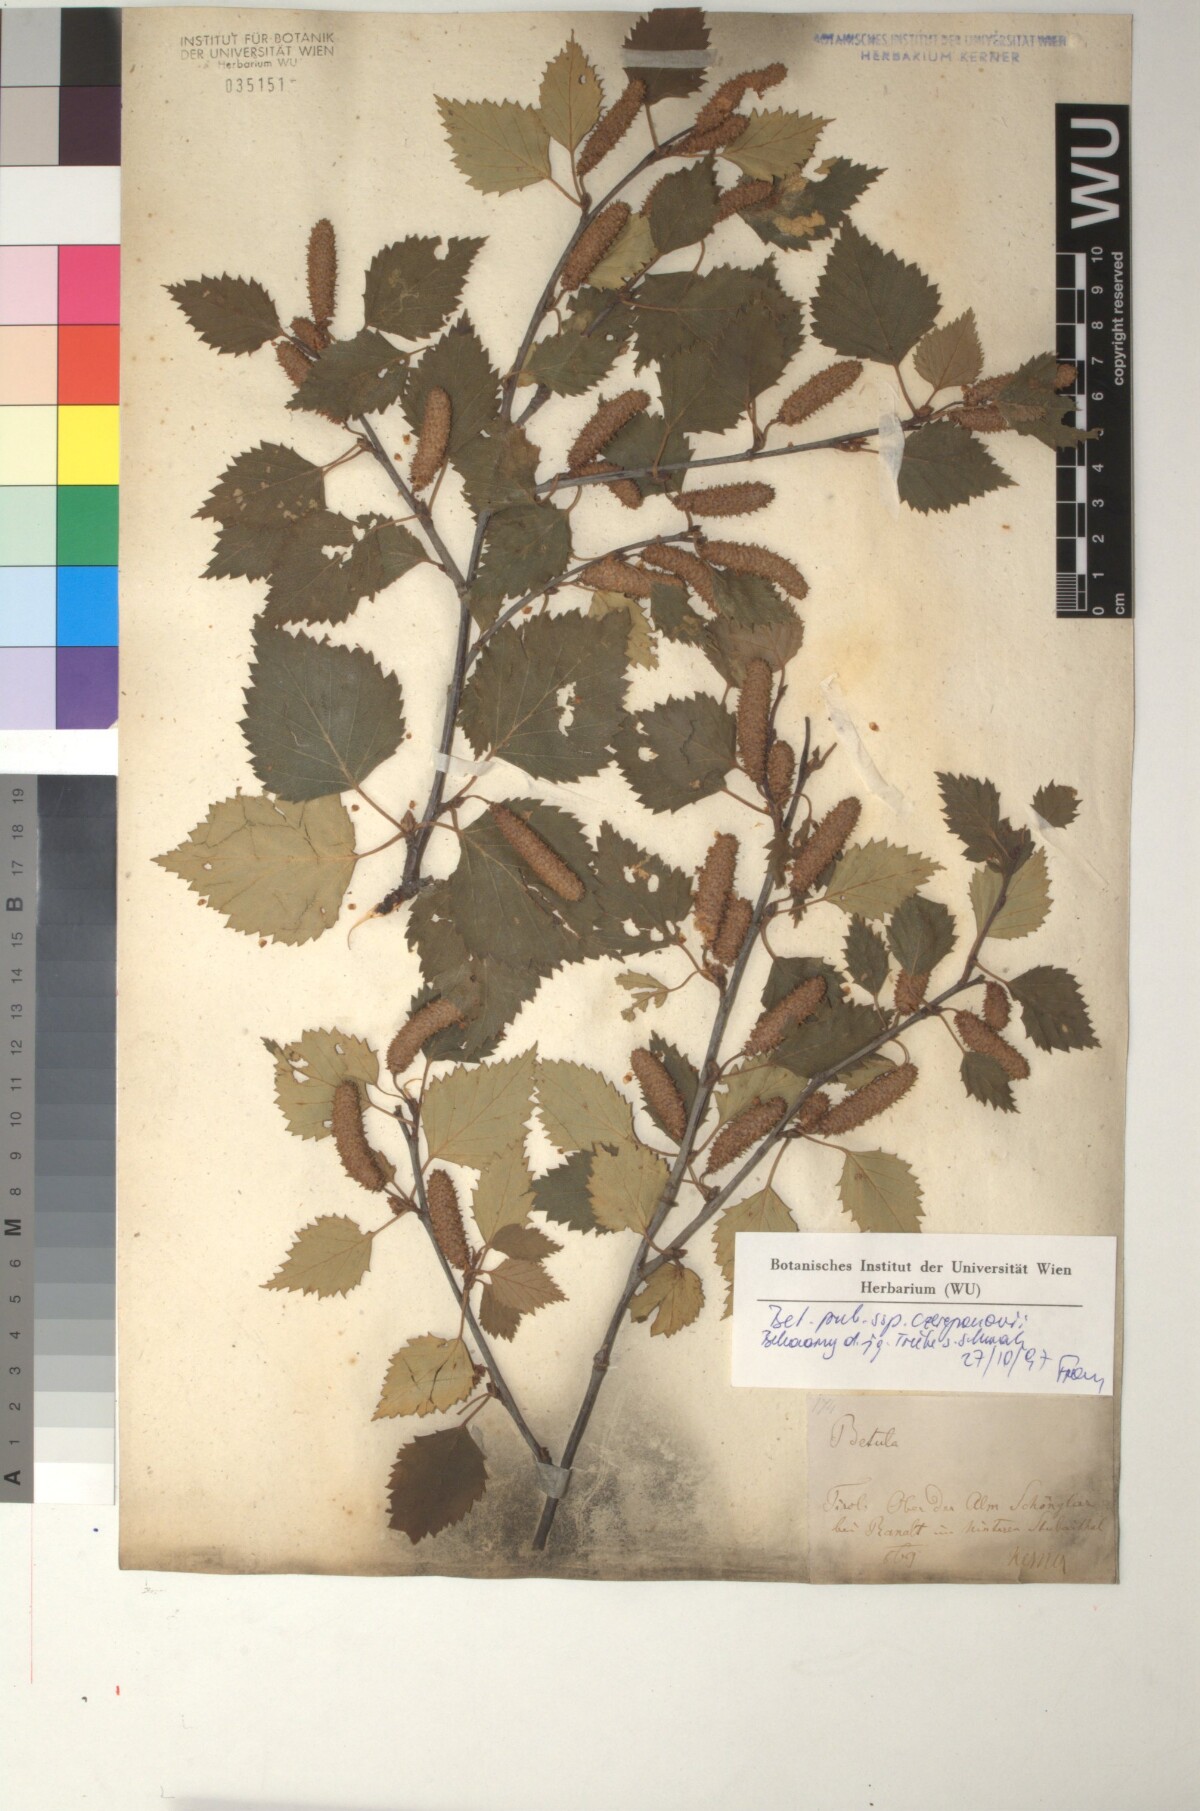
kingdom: Plantae
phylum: Tracheophyta
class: Magnoliopsida
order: Fagales
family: Betulaceae
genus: Betula
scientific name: Betula pubescens
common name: Downy birch
